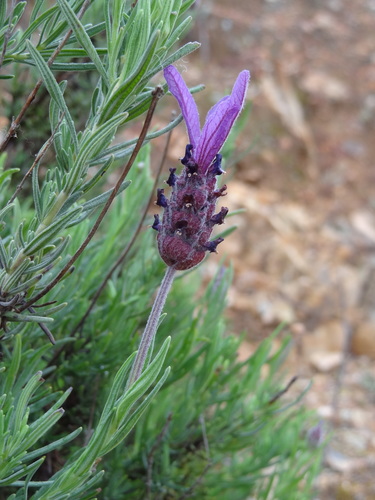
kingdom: Plantae
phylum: Tracheophyta
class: Magnoliopsida
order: Lamiales
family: Lamiaceae
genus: Lavandula
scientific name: Lavandula stoechas
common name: French lavender
